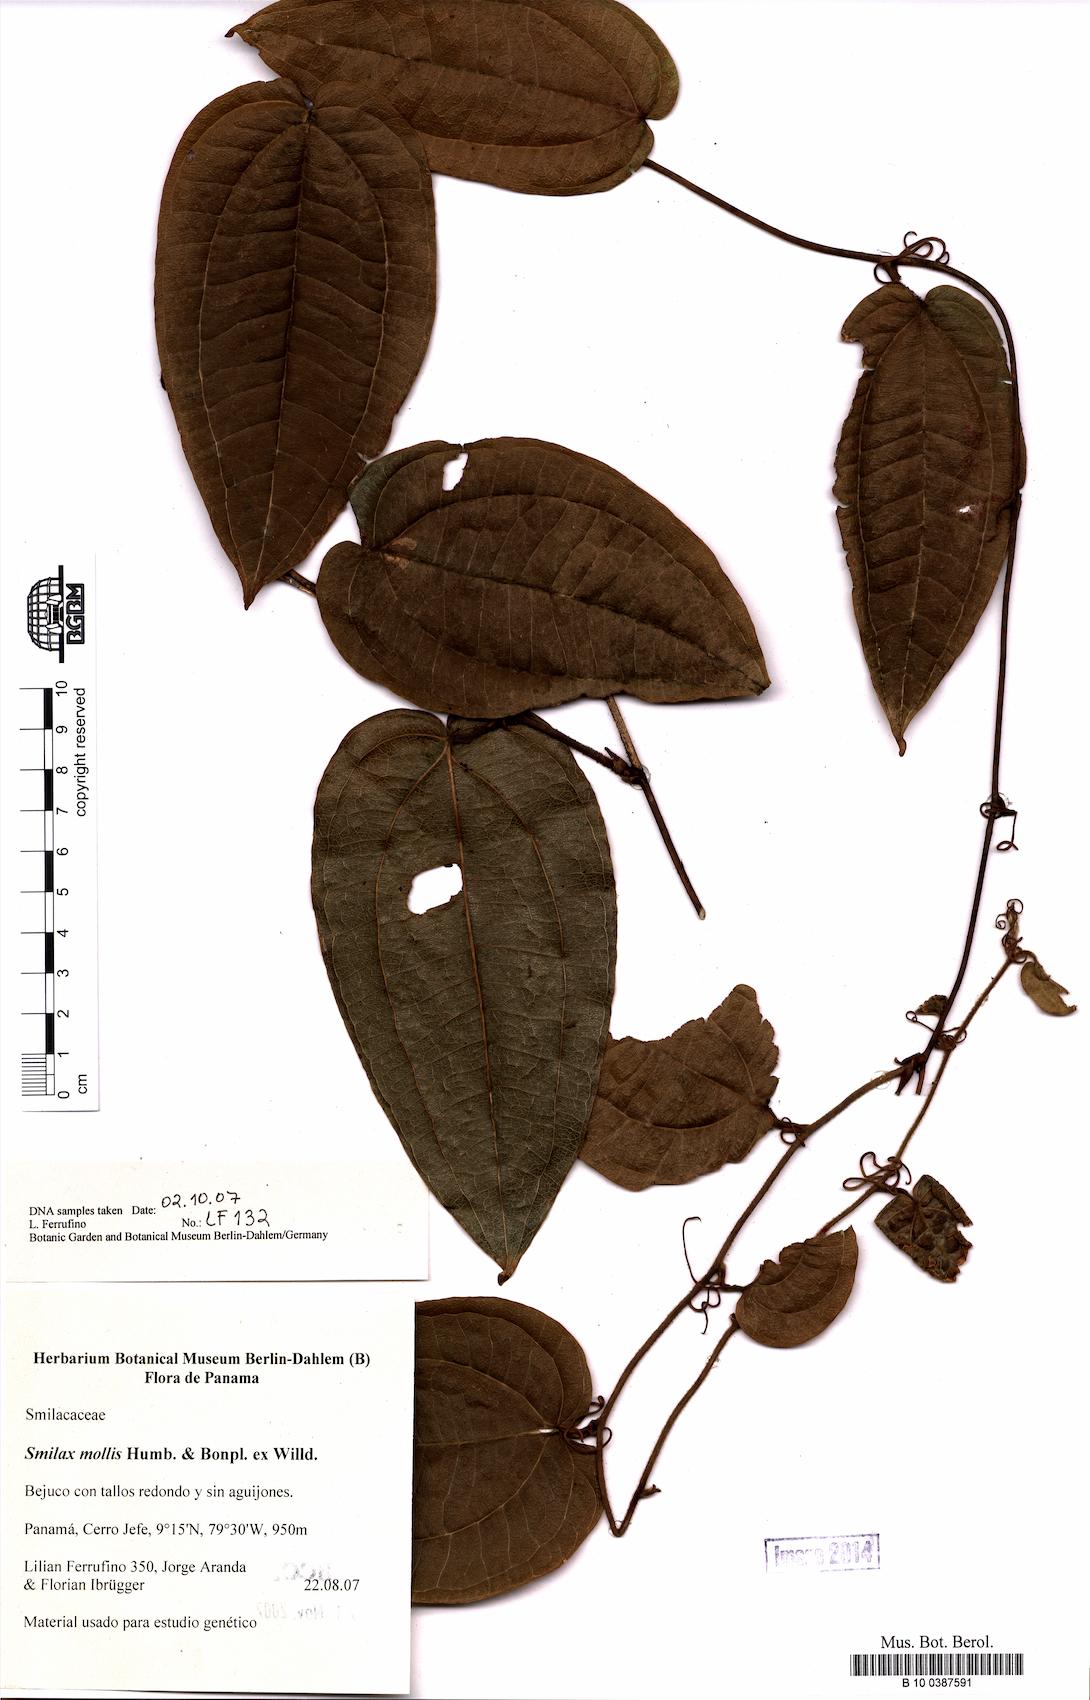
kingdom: Plantae
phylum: Tracheophyta
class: Liliopsida
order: Liliales
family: Smilacaceae
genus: Smilax
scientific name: Smilax mollis
